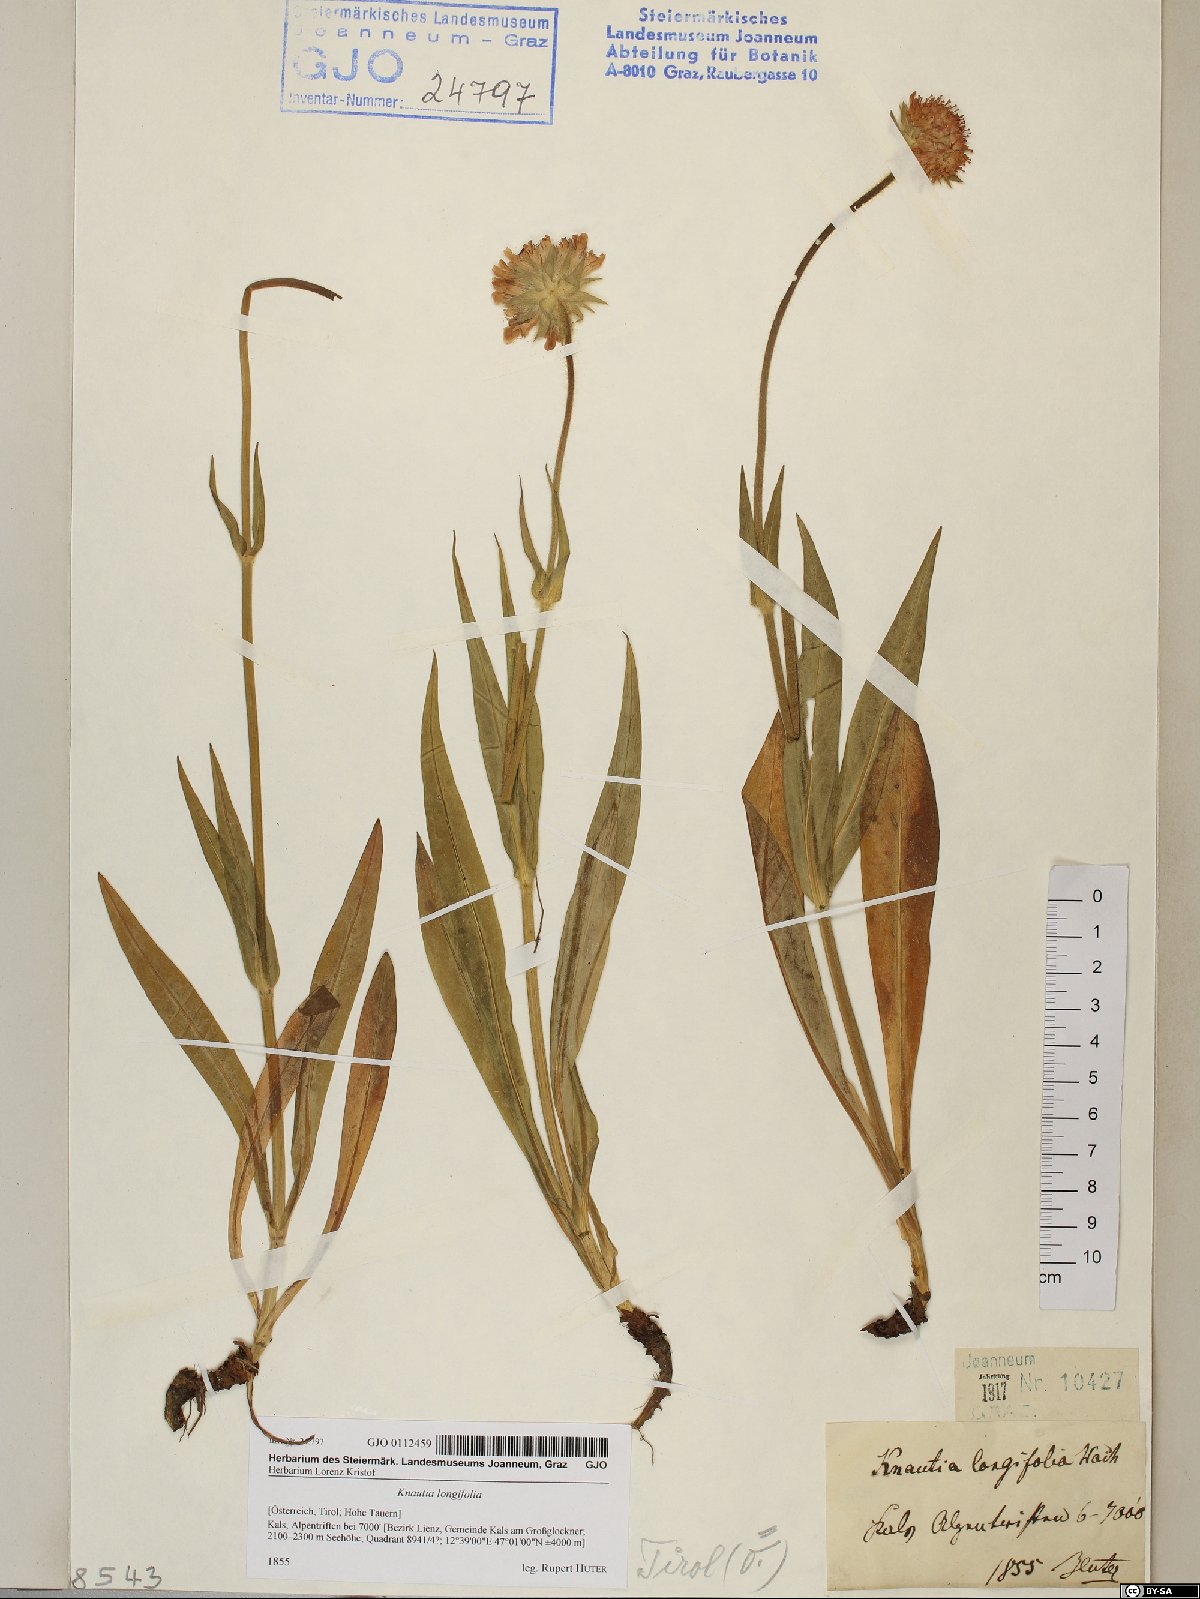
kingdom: Plantae
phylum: Tracheophyta
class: Magnoliopsida
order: Dipsacales
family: Caprifoliaceae
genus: Knautia
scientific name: Knautia longifolia
